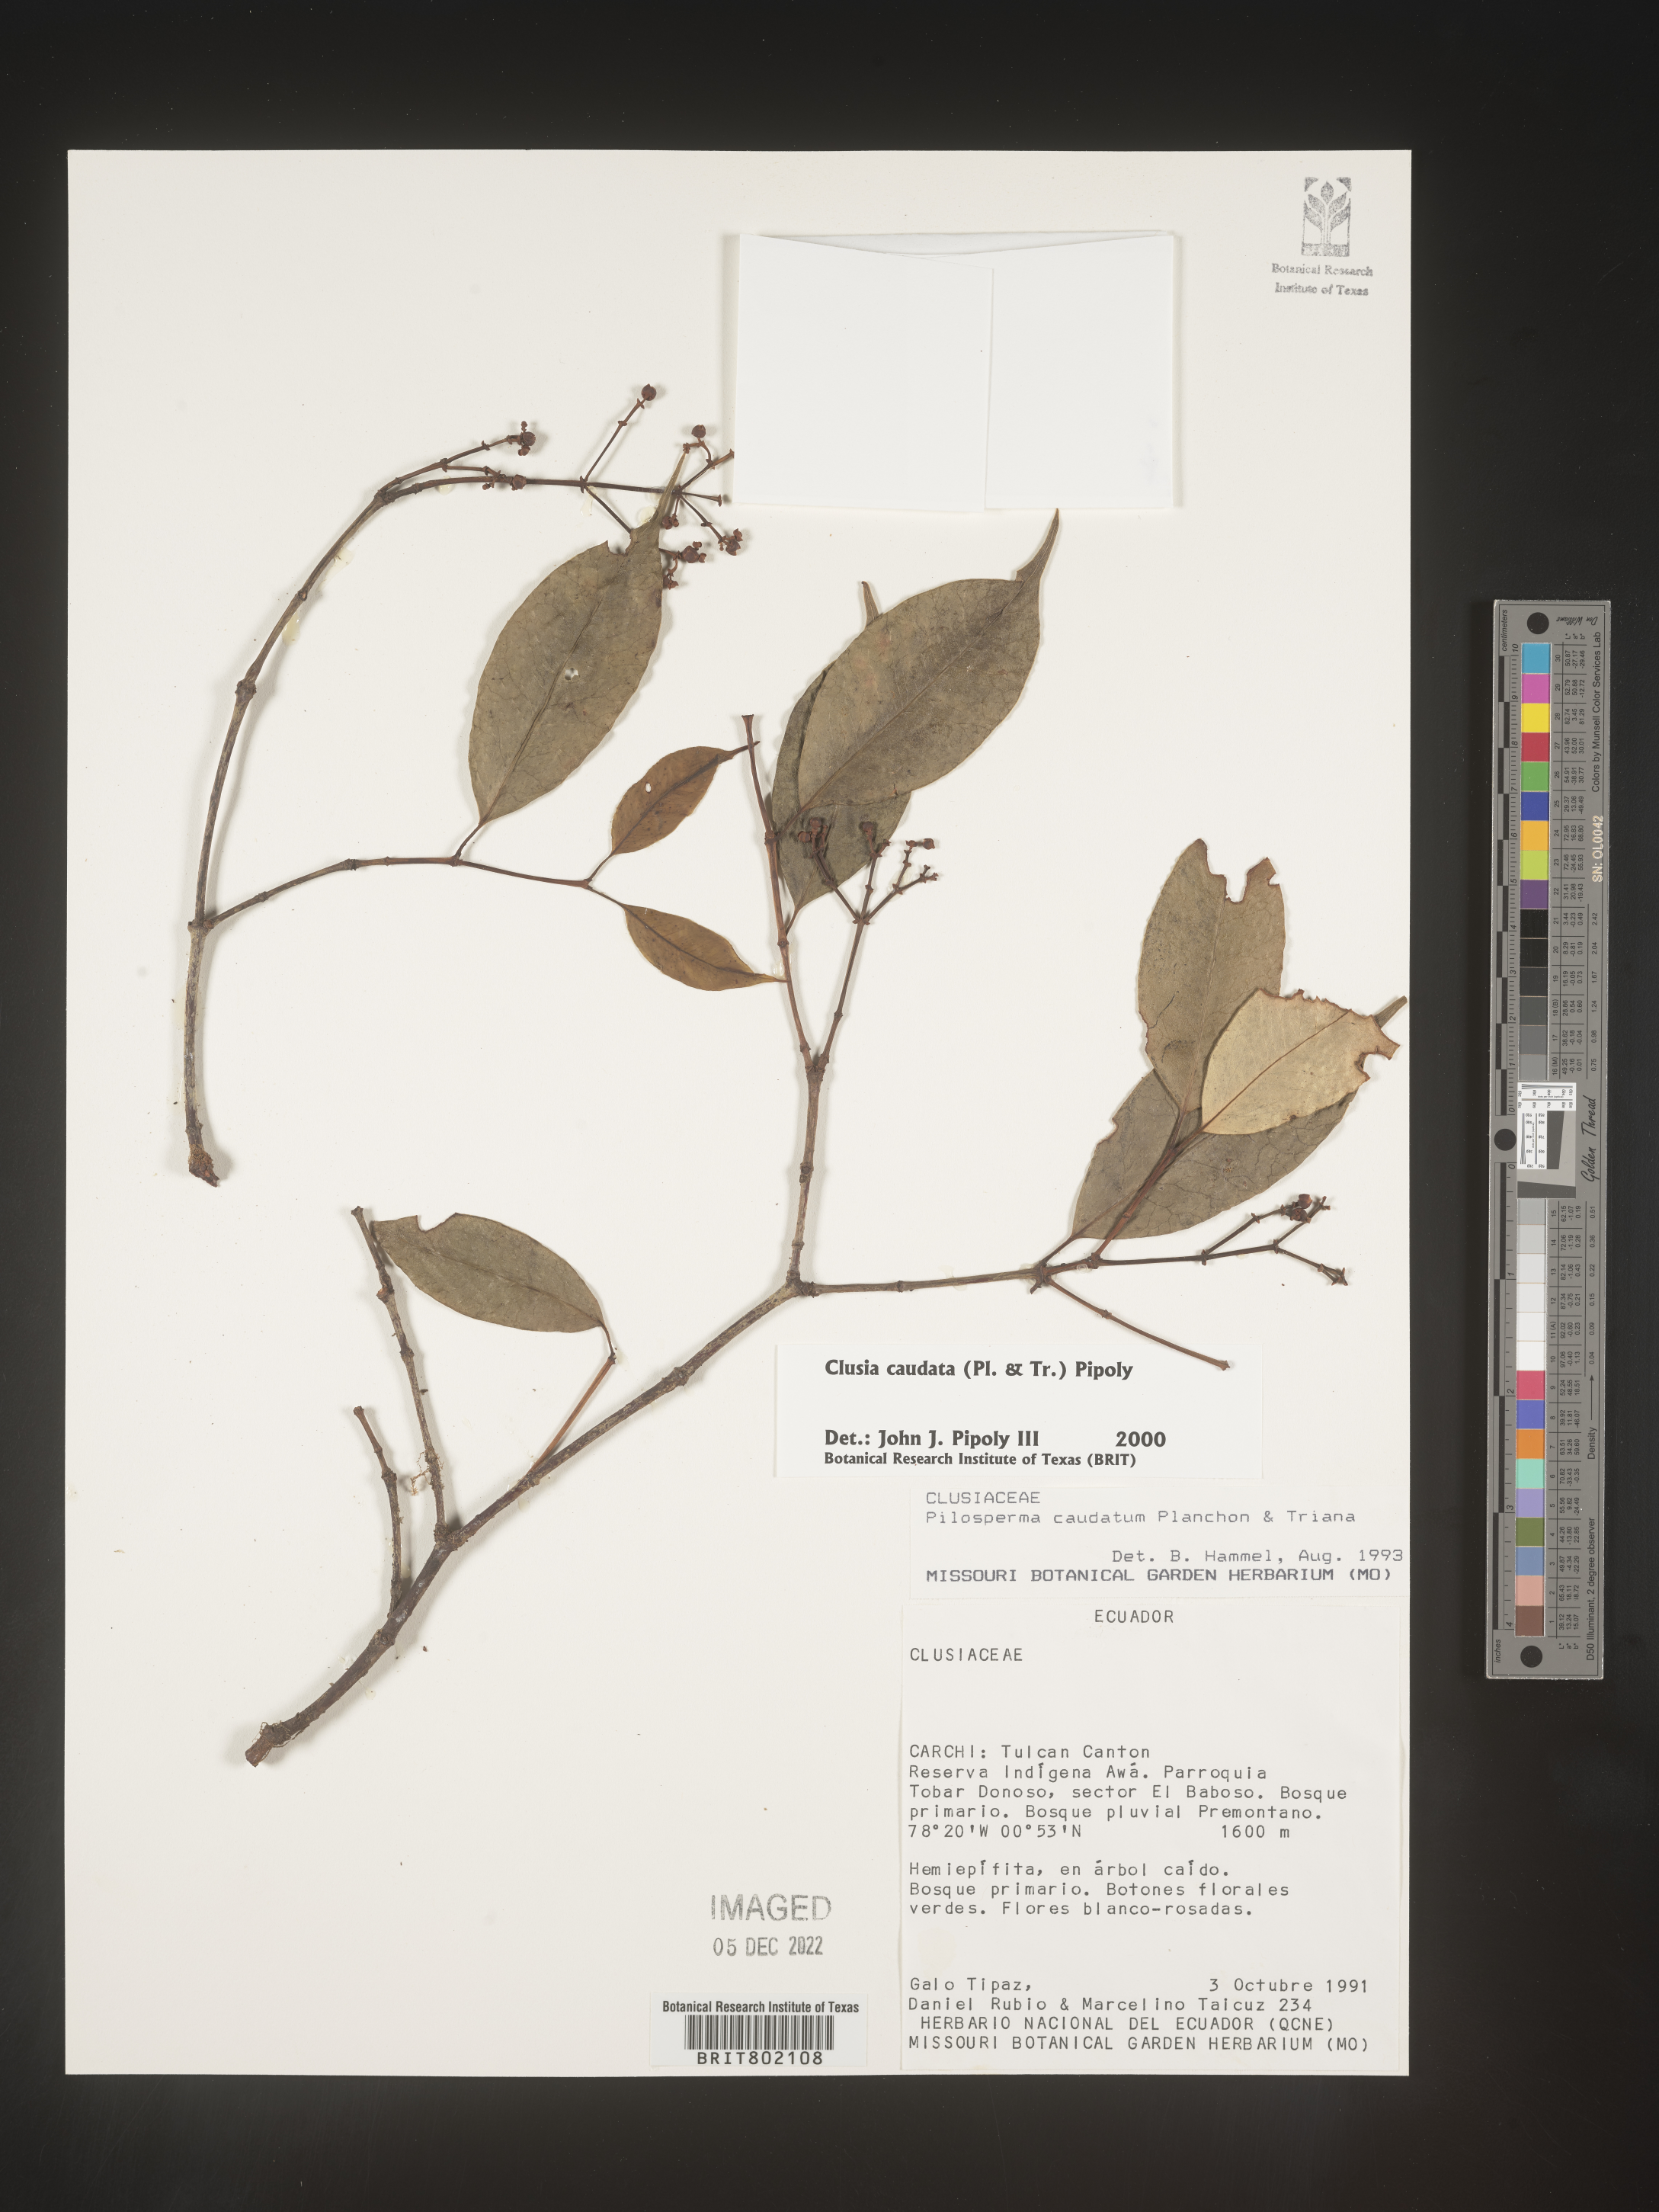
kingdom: Plantae
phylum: Tracheophyta
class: Magnoliopsida
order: Malpighiales
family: Clusiaceae
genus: Clusia
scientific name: Clusia
